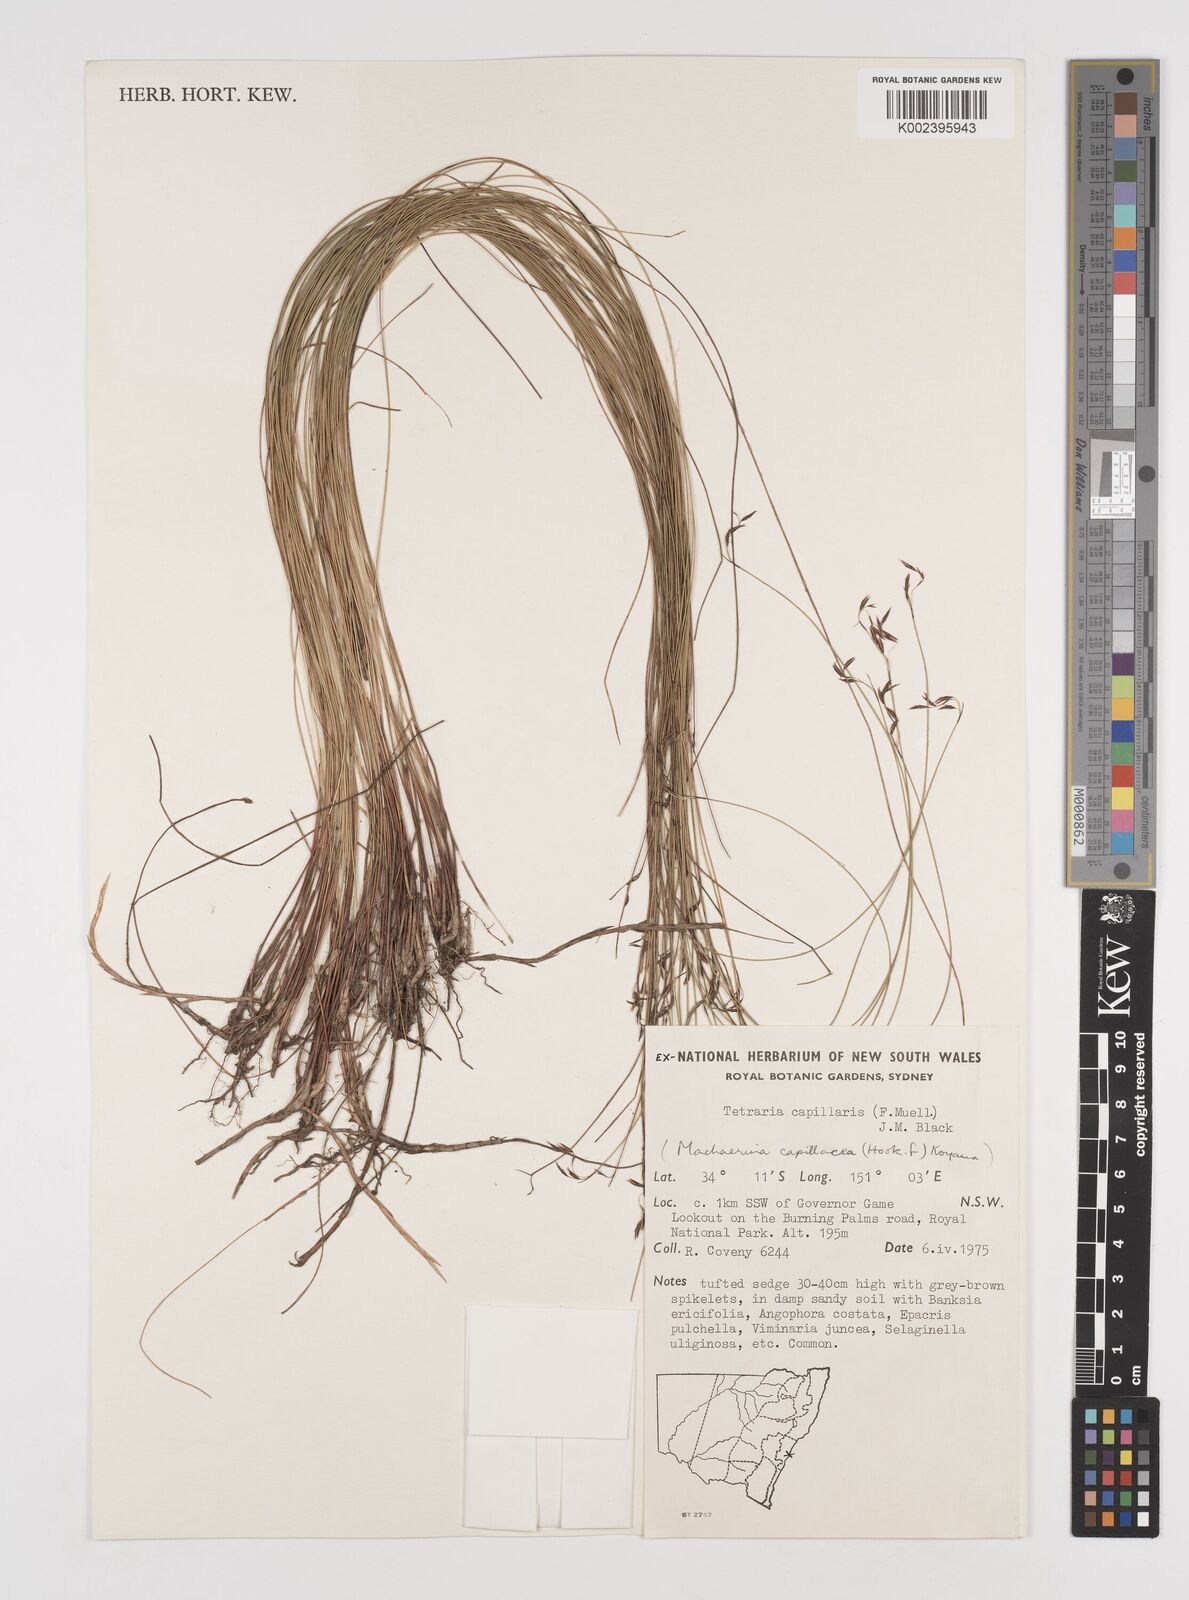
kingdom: Plantae
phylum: Tracheophyta
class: Liliopsida
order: Poales
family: Cyperaceae
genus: Tetraria
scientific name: Tetraria capillaris
